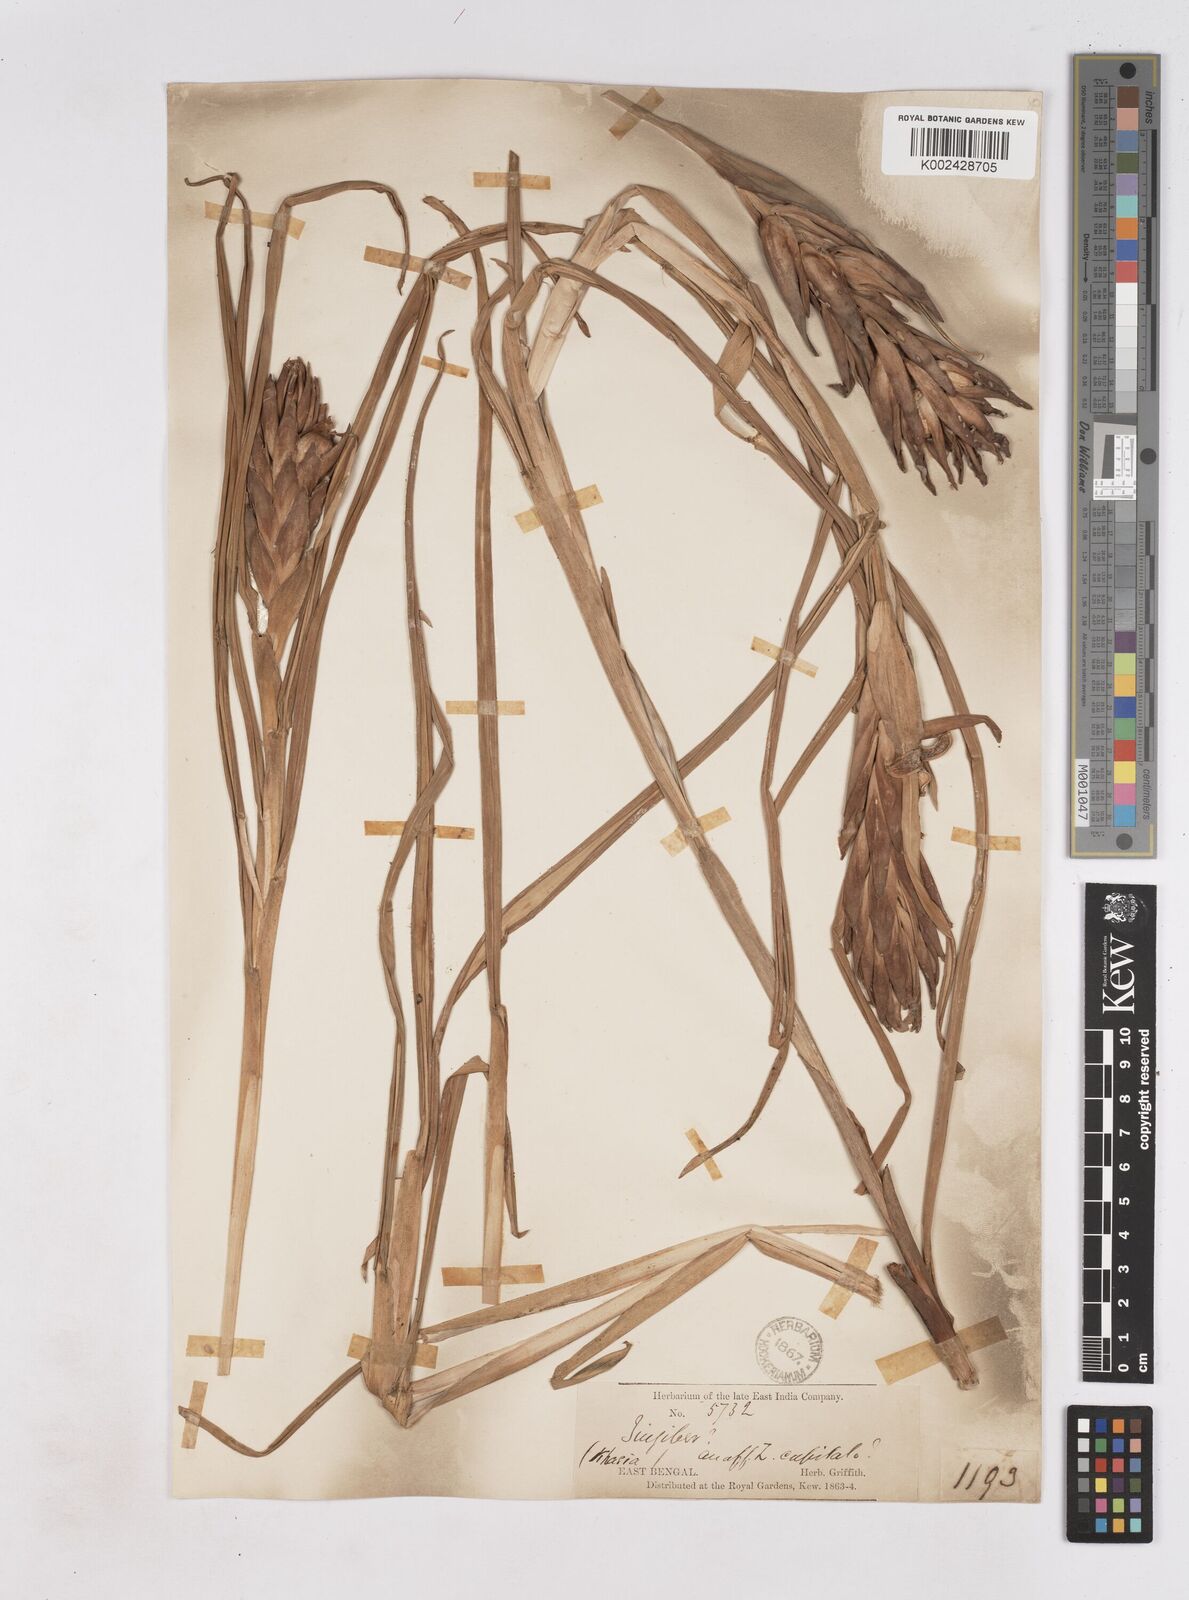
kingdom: Plantae
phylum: Tracheophyta
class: Liliopsida
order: Zingiberales
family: Zingiberaceae
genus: Zingiber
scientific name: Zingiber capitatum
